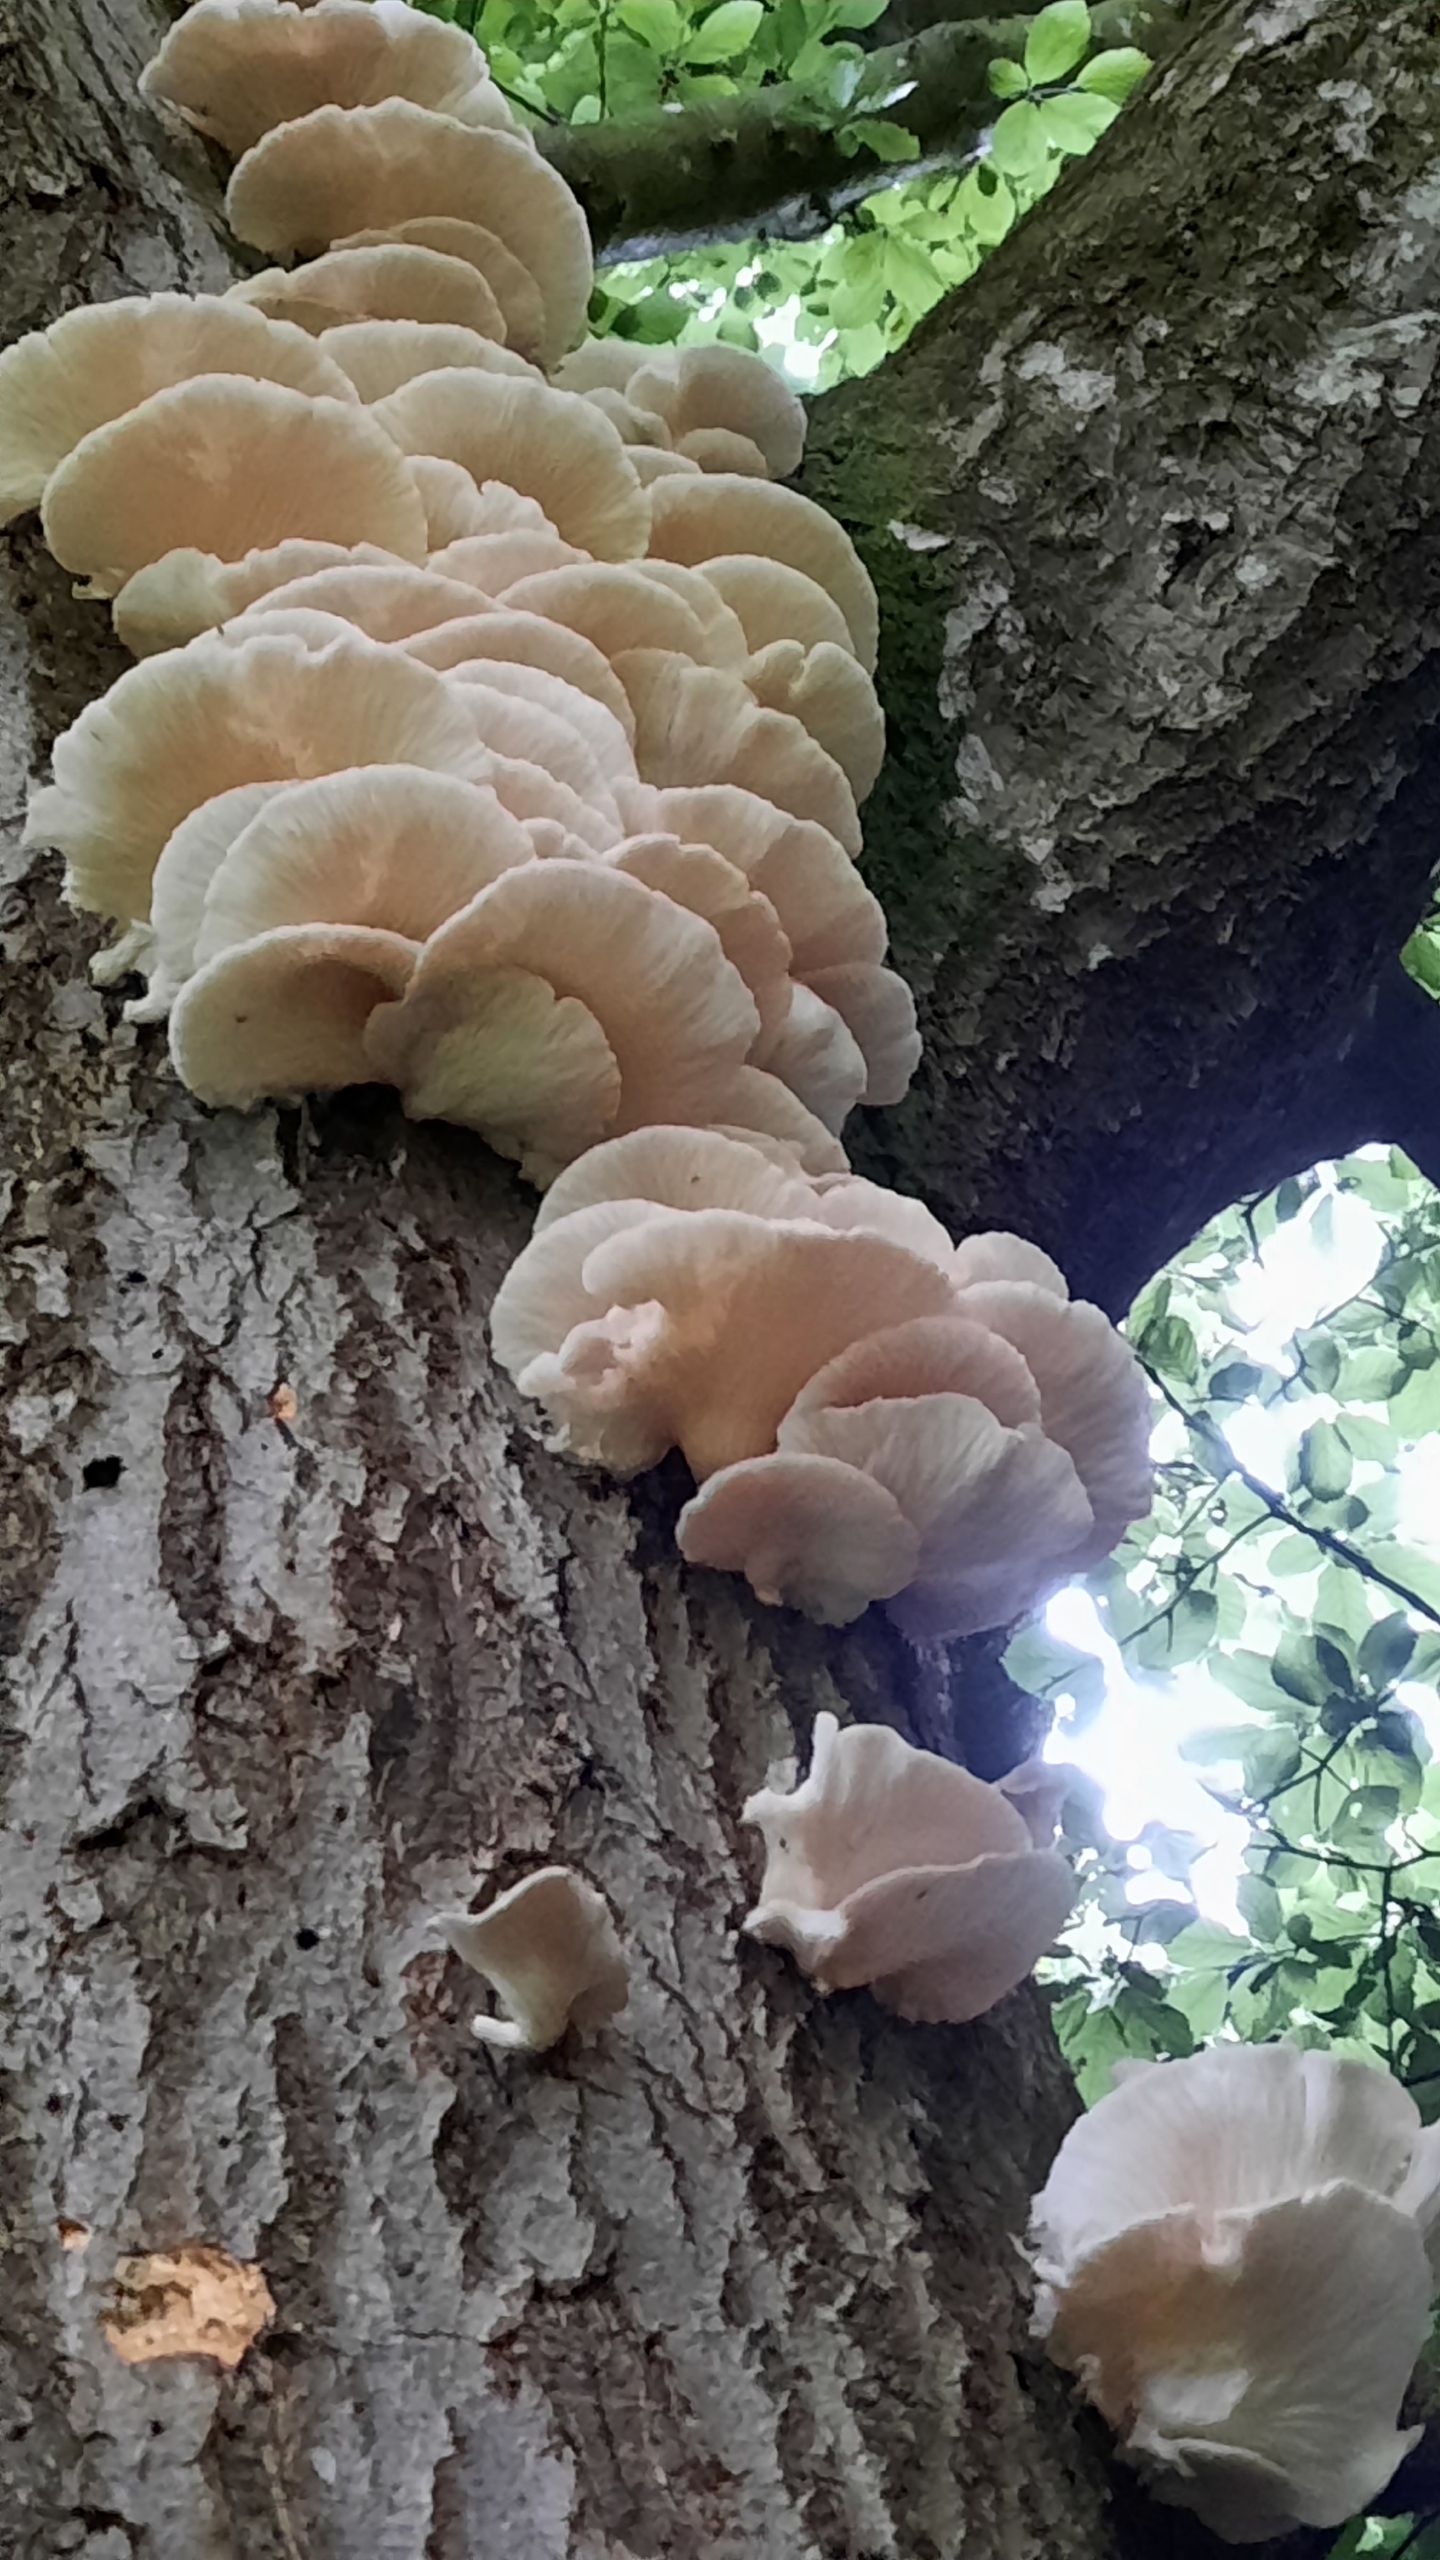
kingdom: Fungi
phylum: Basidiomycota
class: Agaricomycetes
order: Agaricales
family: Pleurotaceae
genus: Pleurotus
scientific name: Pleurotus pulmonarius
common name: Sommer-østershat
